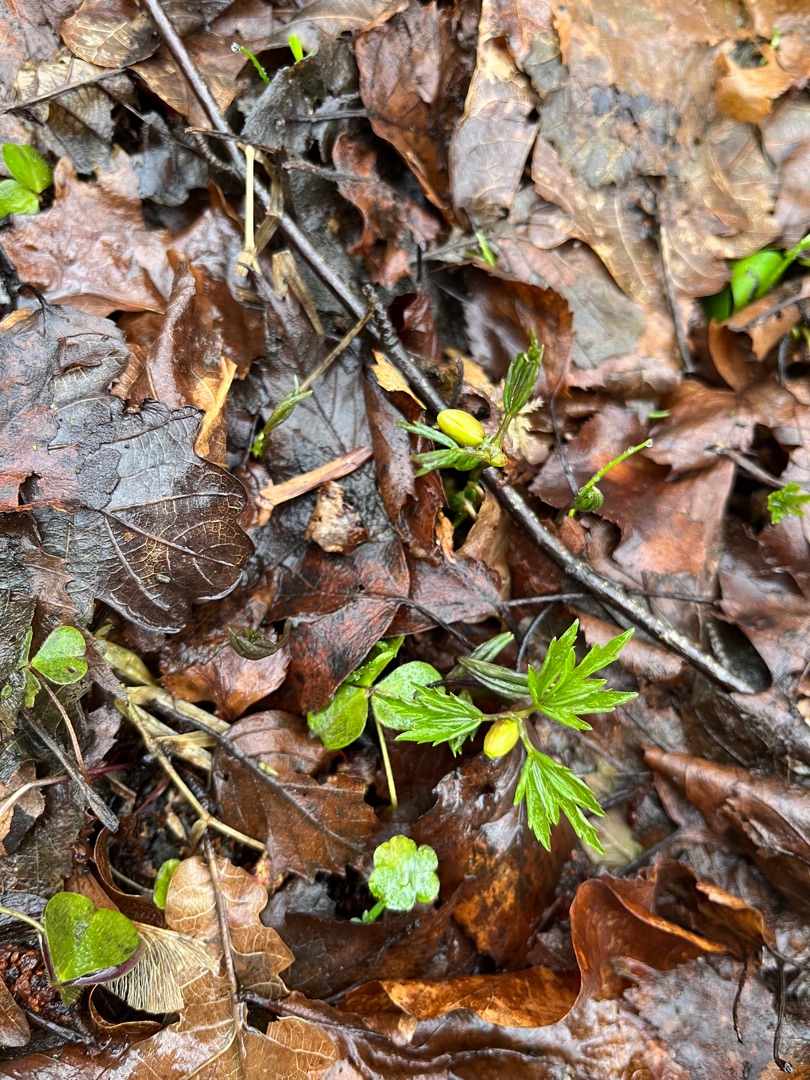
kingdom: Plantae
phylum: Tracheophyta
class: Magnoliopsida
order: Ranunculales
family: Ranunculaceae
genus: Anemone
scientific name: Anemone nemorosa
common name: Hvid anemone
